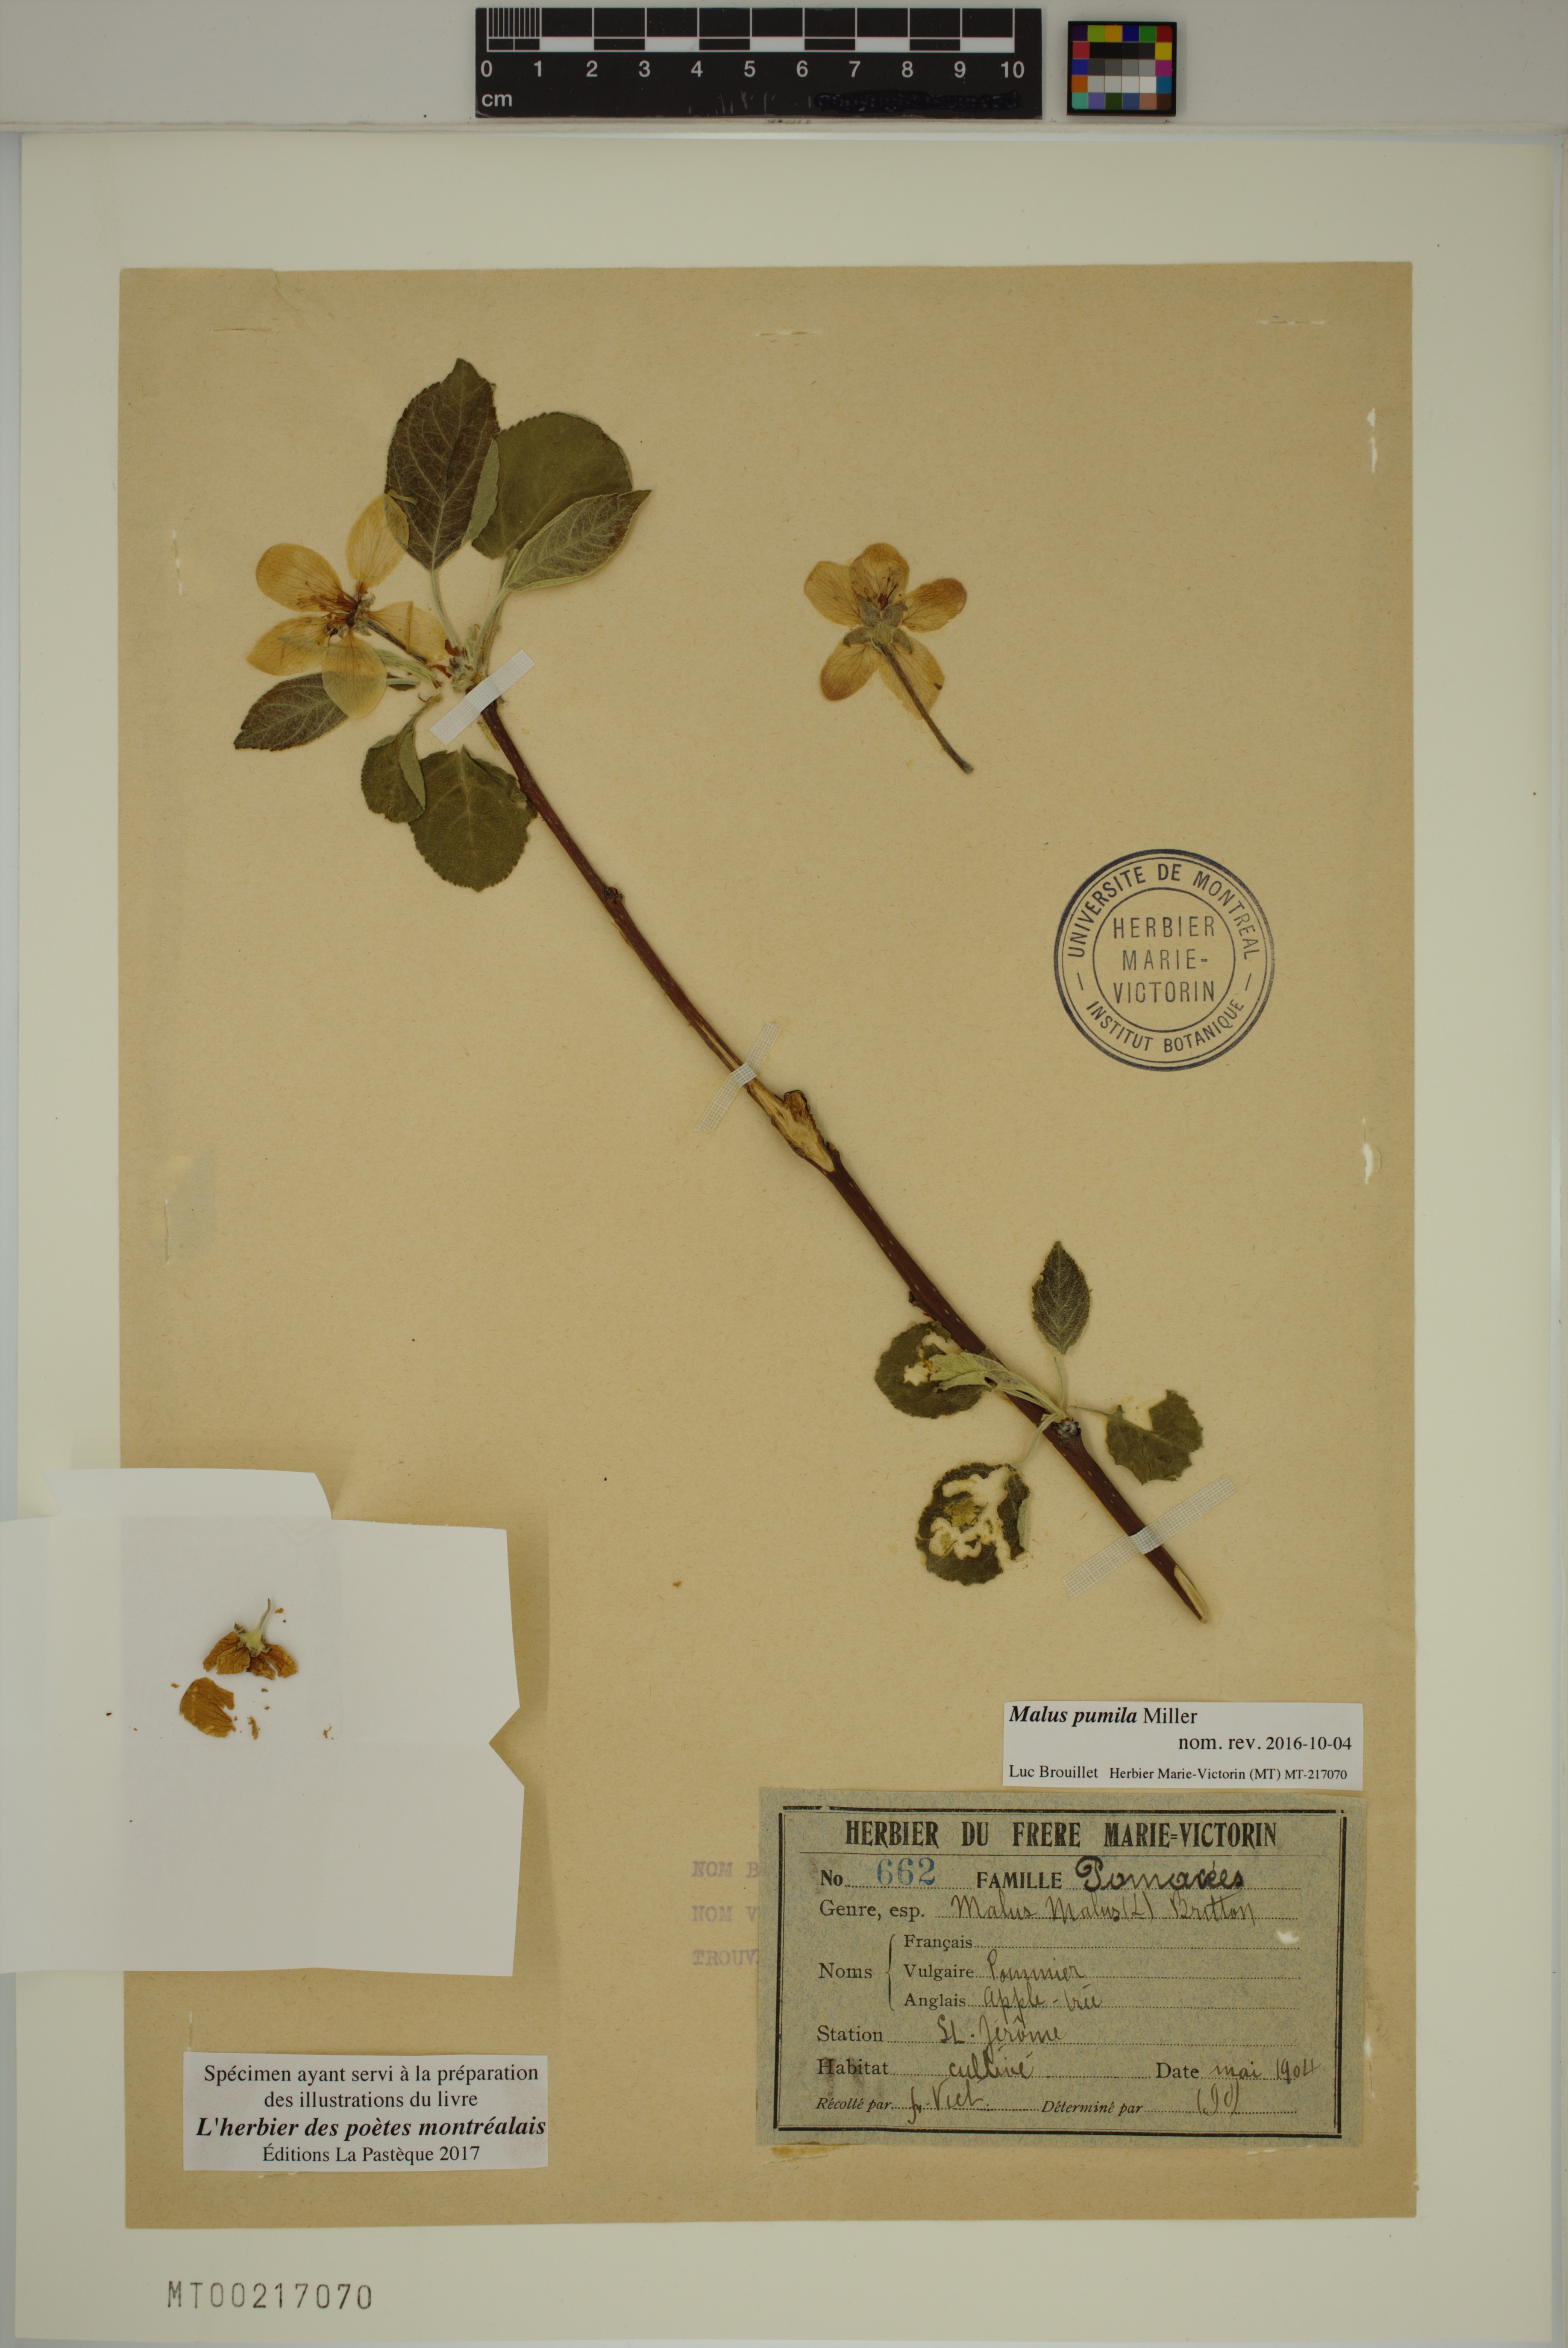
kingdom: Plantae
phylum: Tracheophyta
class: Magnoliopsida
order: Rosales
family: Rosaceae
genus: Malus
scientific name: Malus domestica
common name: Apple
